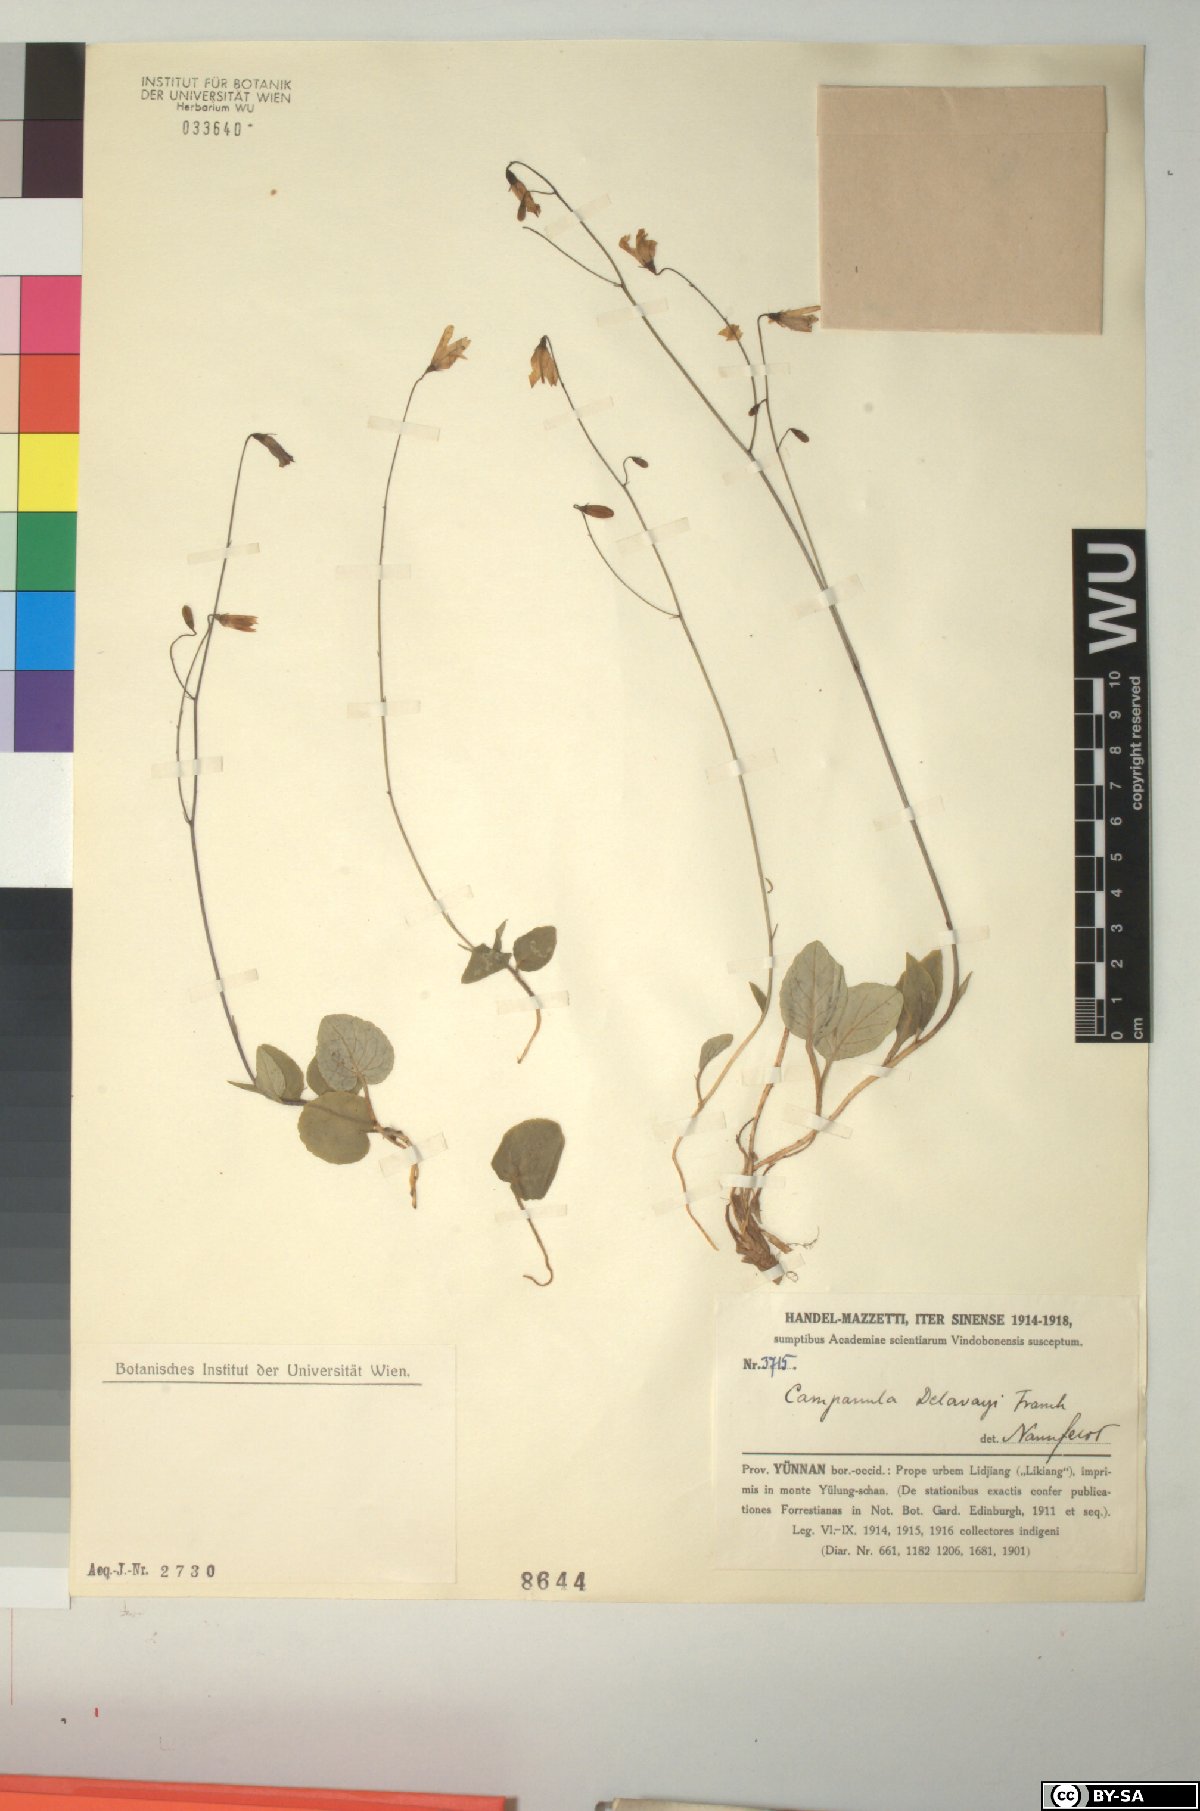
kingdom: Plantae
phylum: Tracheophyta
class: Magnoliopsida
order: Asterales
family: Campanulaceae
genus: Adenophora
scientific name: Adenophora delavayi
